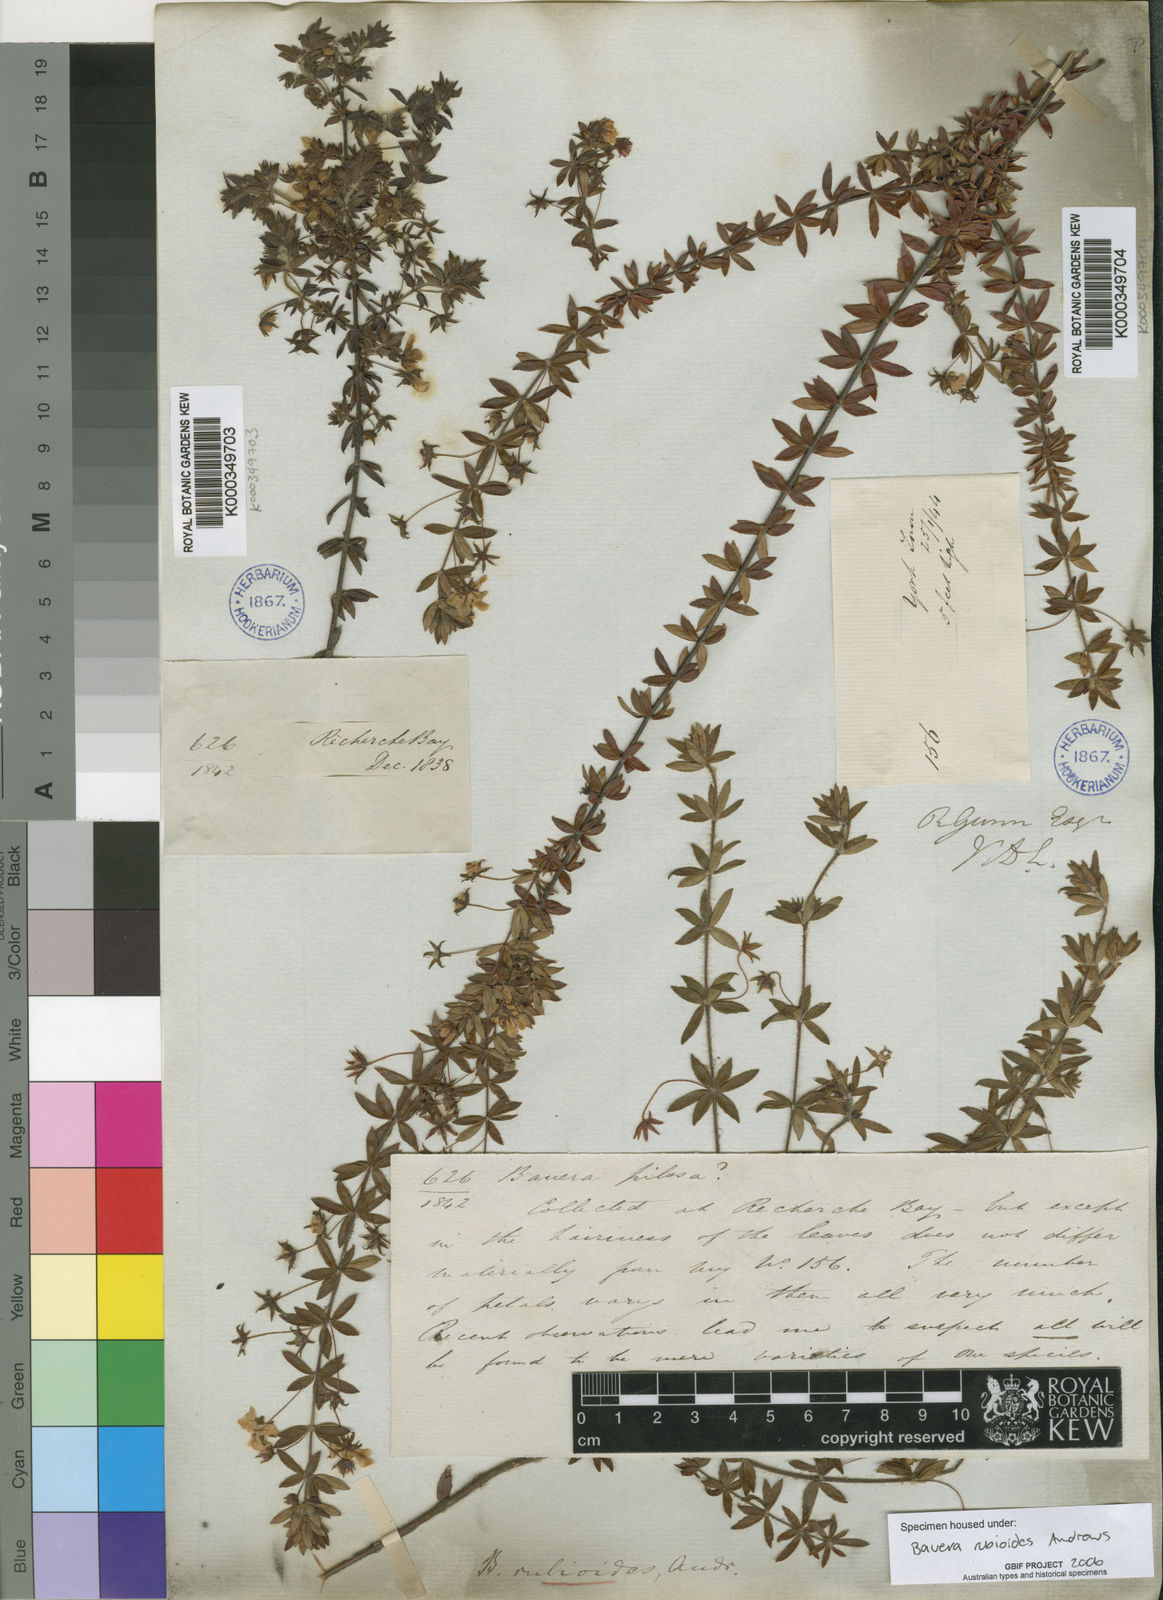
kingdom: Plantae
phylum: Tracheophyta
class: Magnoliopsida
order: Oxalidales
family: Cunoniaceae
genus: Bauera
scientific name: Bauera rubioides
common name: River-rose
